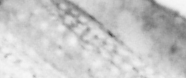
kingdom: Animalia
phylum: Chordata
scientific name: Chordata
